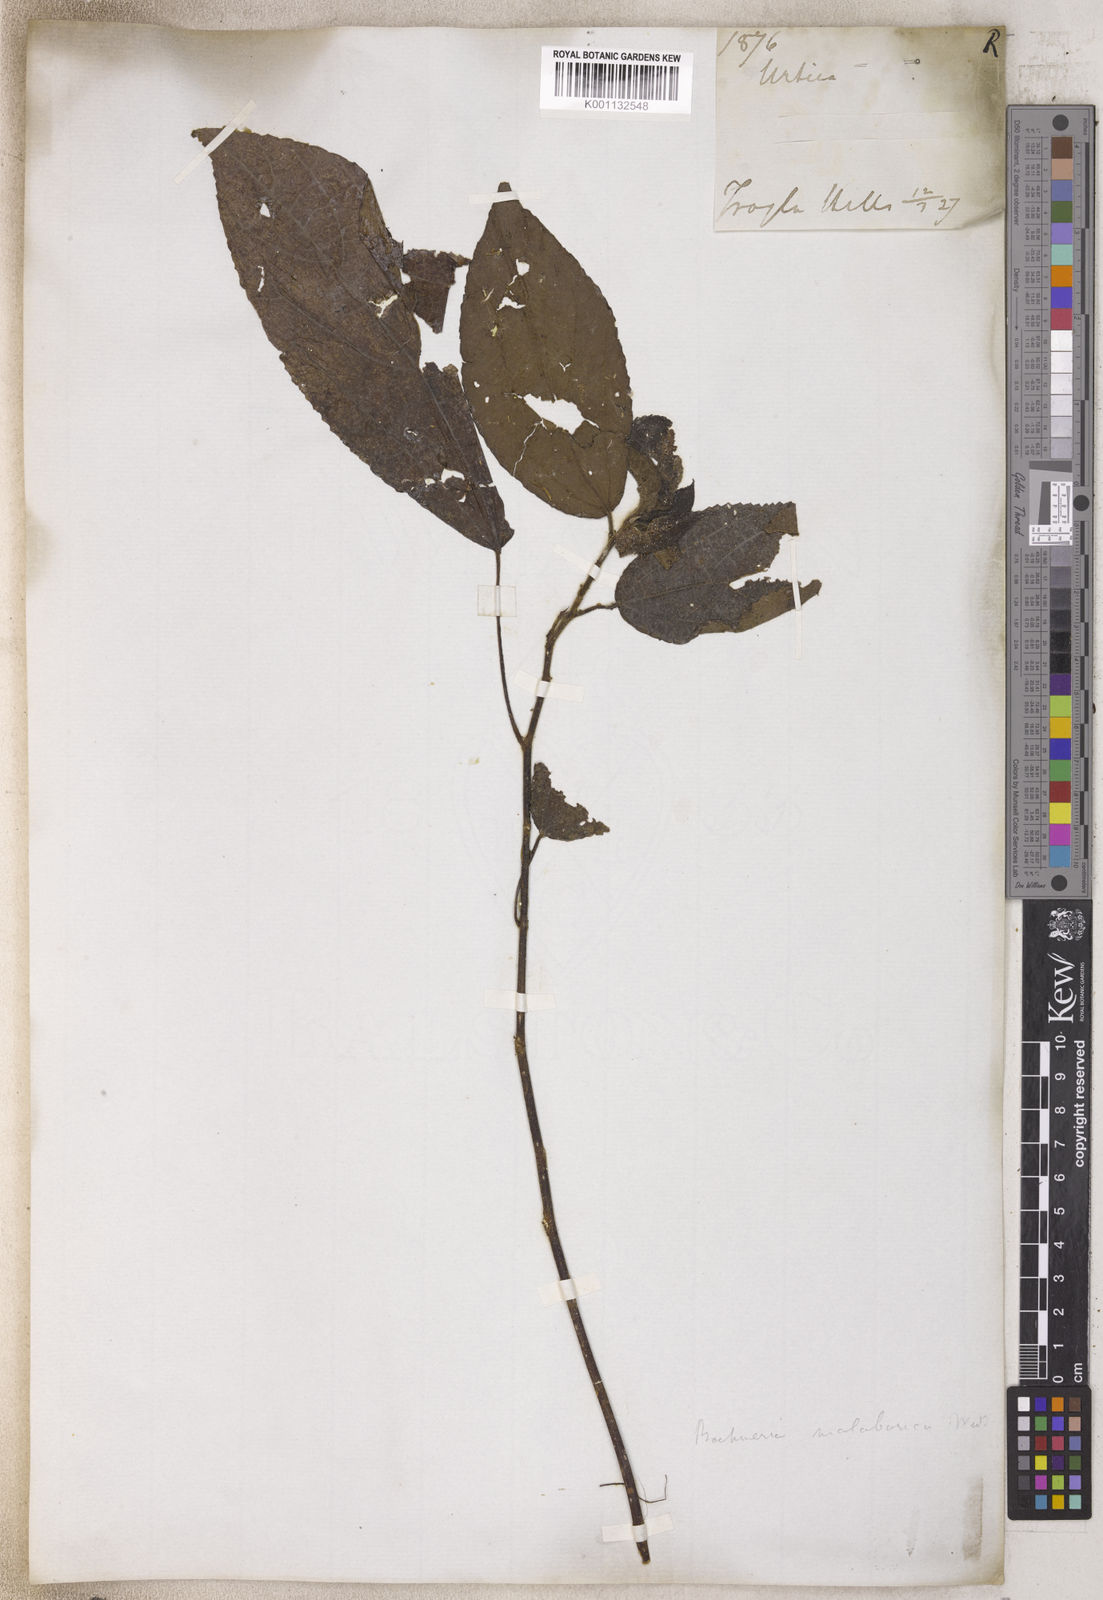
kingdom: Plantae
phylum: Tracheophyta
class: Magnoliopsida
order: Rosales
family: Urticaceae
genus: Boehmeria
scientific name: Boehmeria
